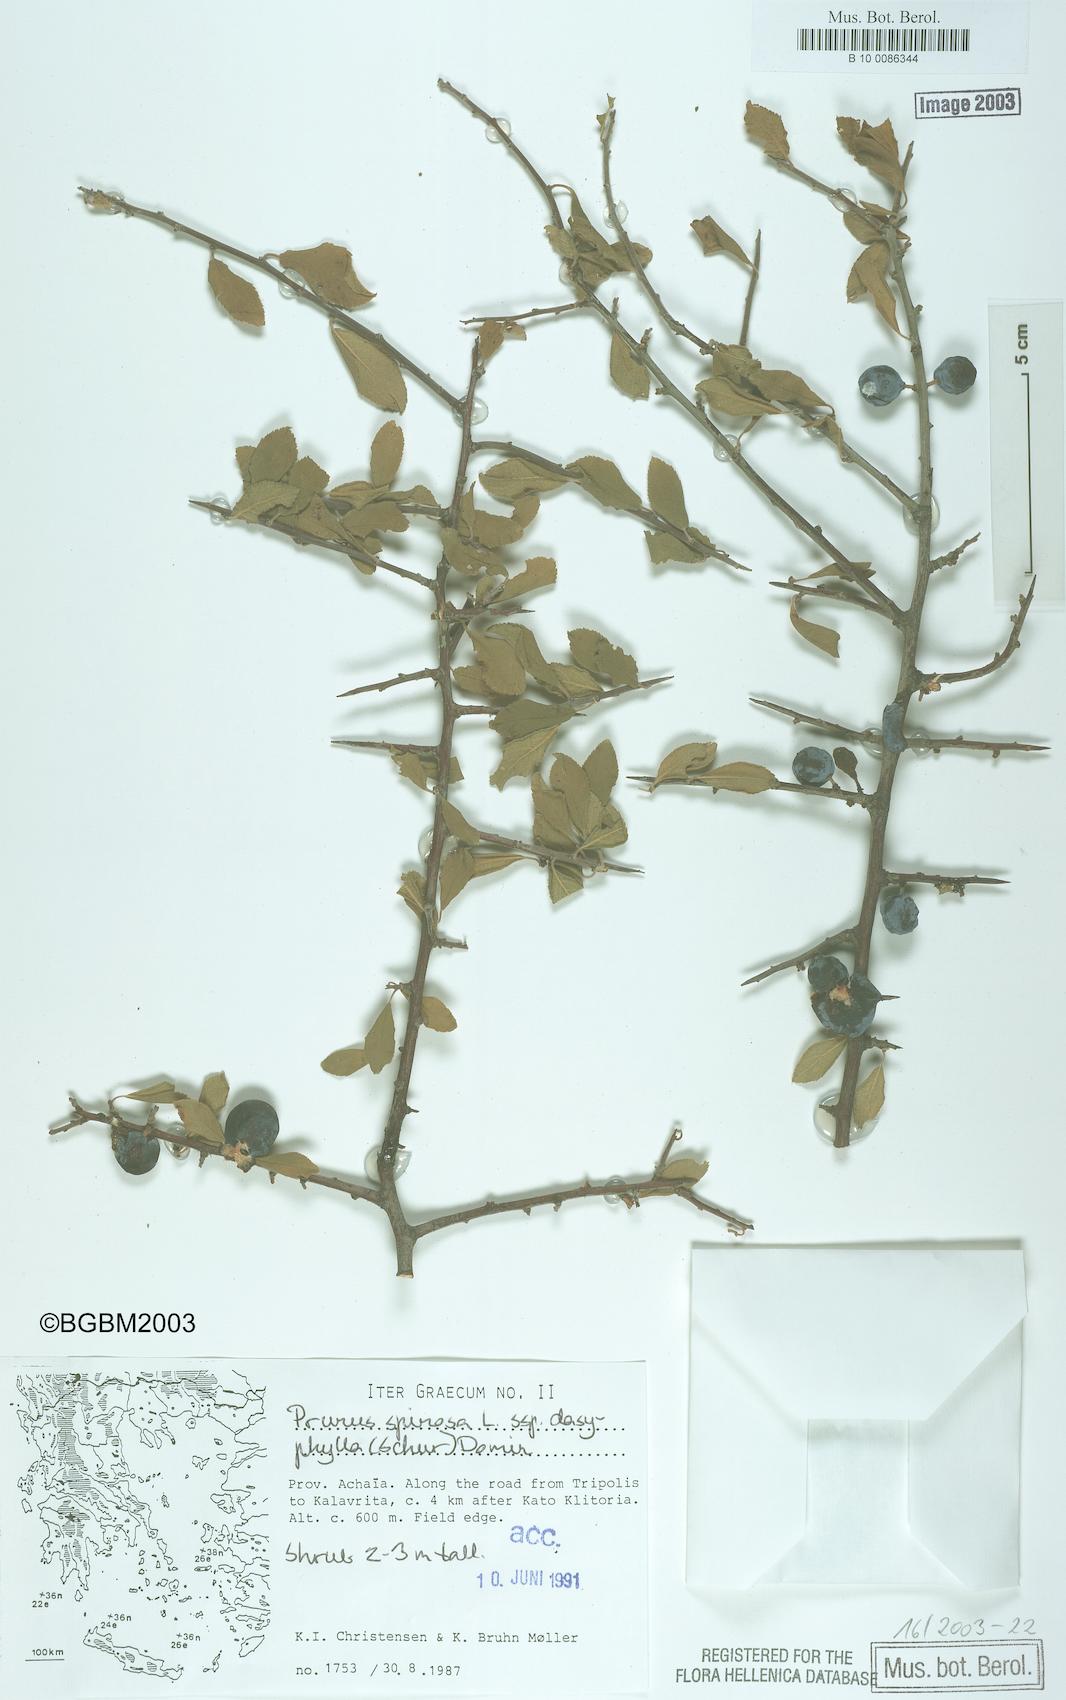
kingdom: Plantae
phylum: Tracheophyta
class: Magnoliopsida
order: Rosales
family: Rosaceae
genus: Prunus
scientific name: Prunus spinosa
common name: Blackthorn
